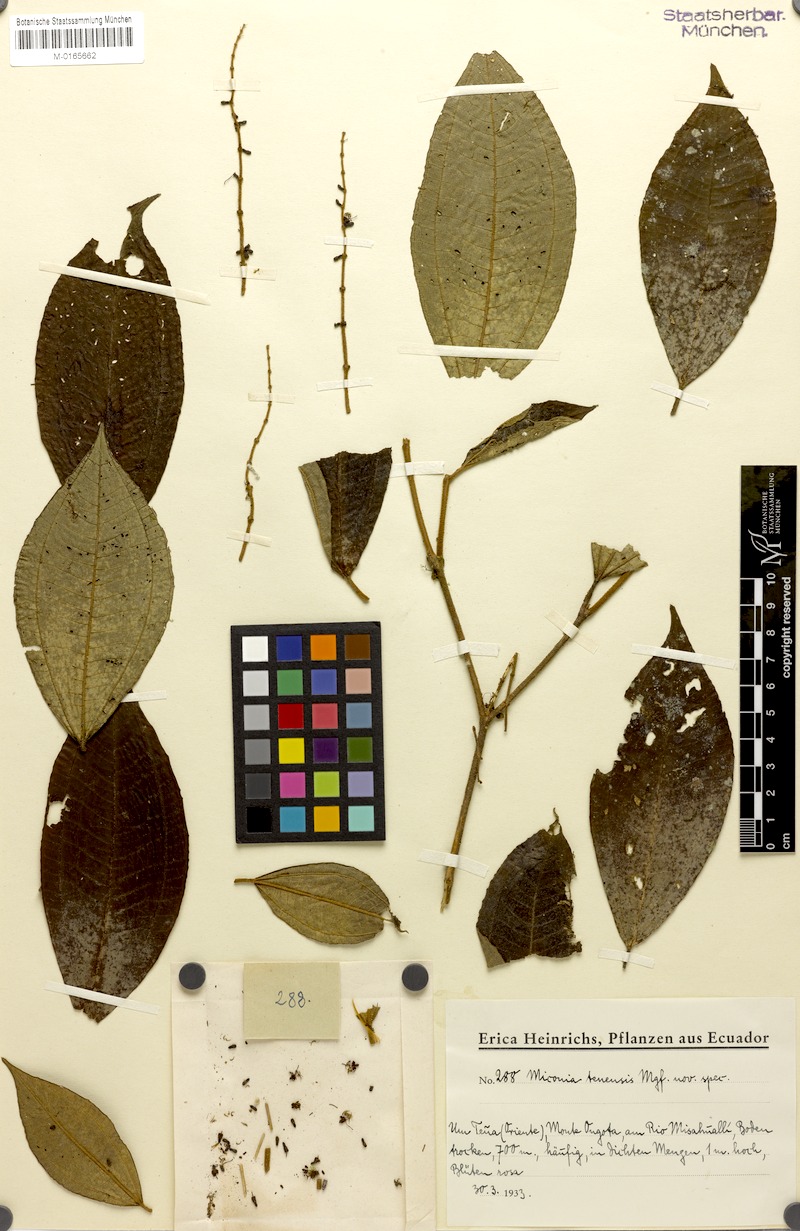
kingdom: Plantae
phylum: Tracheophyta
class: Magnoliopsida
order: Myrtales
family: Melastomataceae
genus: Miconia
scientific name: Miconia tenensis
